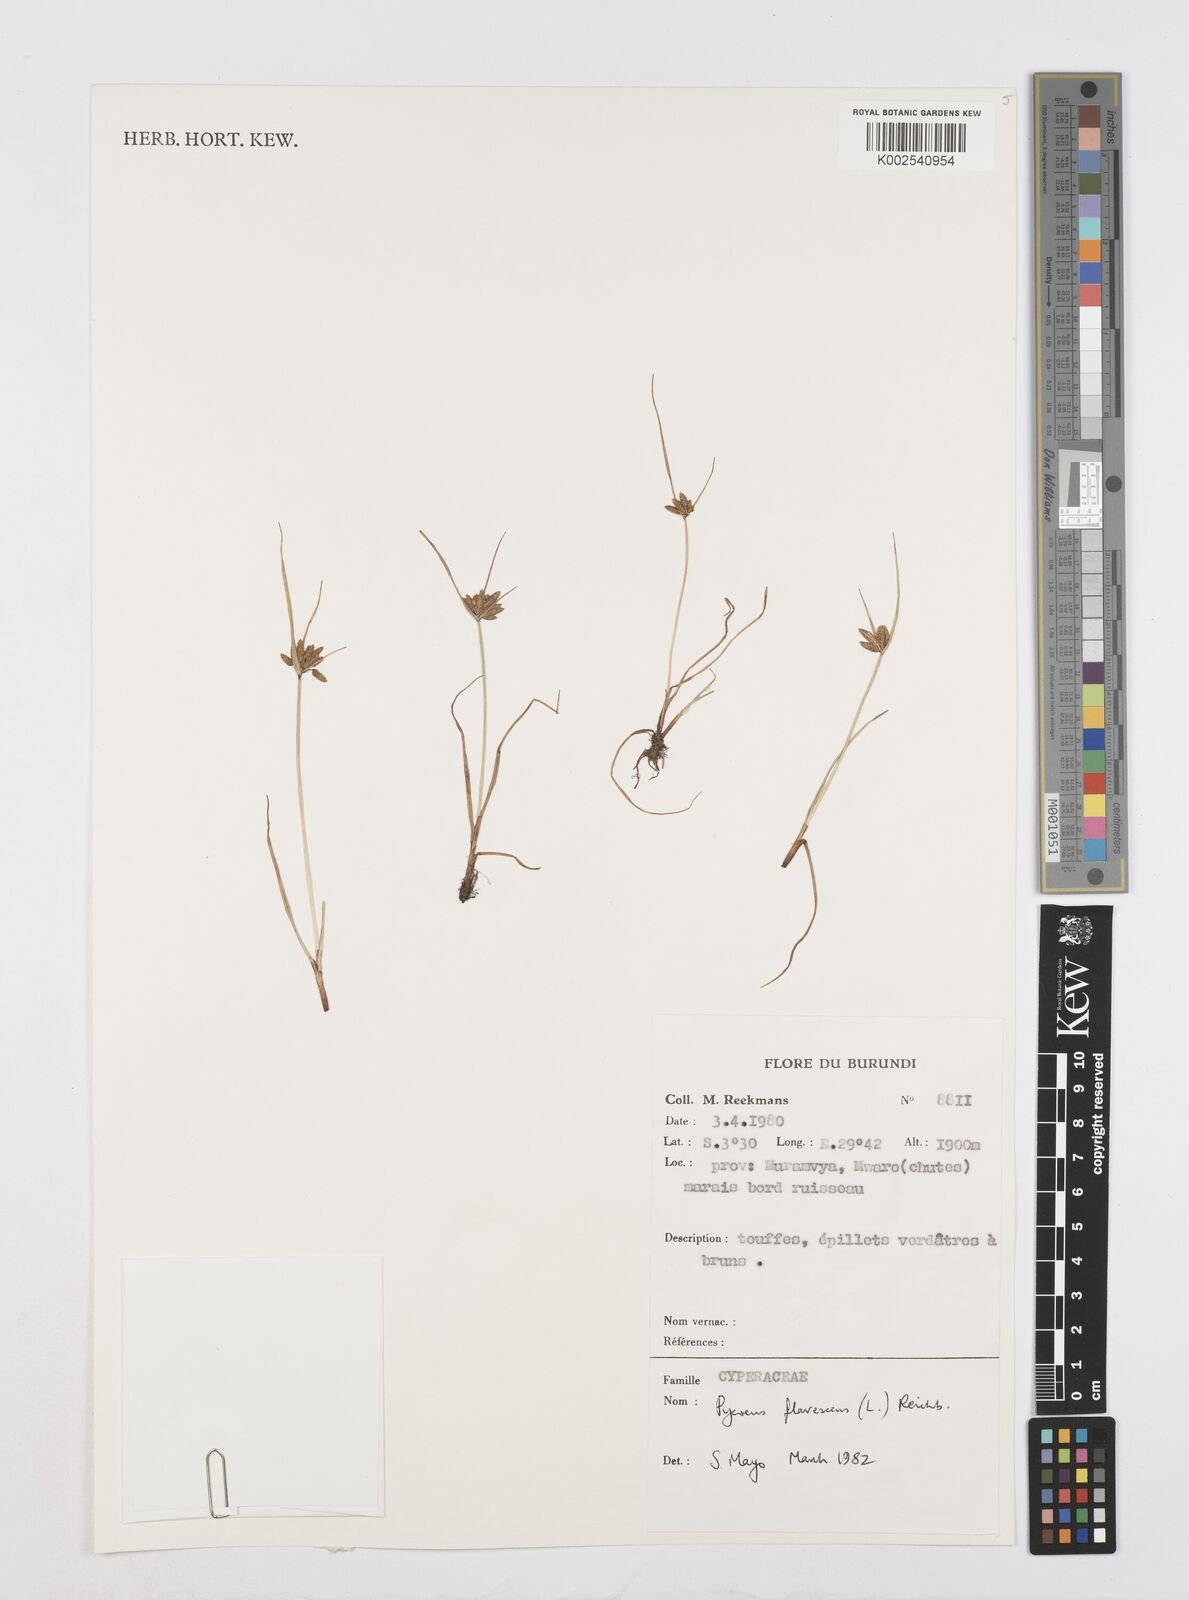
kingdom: Plantae
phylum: Tracheophyta
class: Liliopsida
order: Poales
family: Cyperaceae
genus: Cyperus
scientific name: Cyperus flavescens
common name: Yellow galingale
